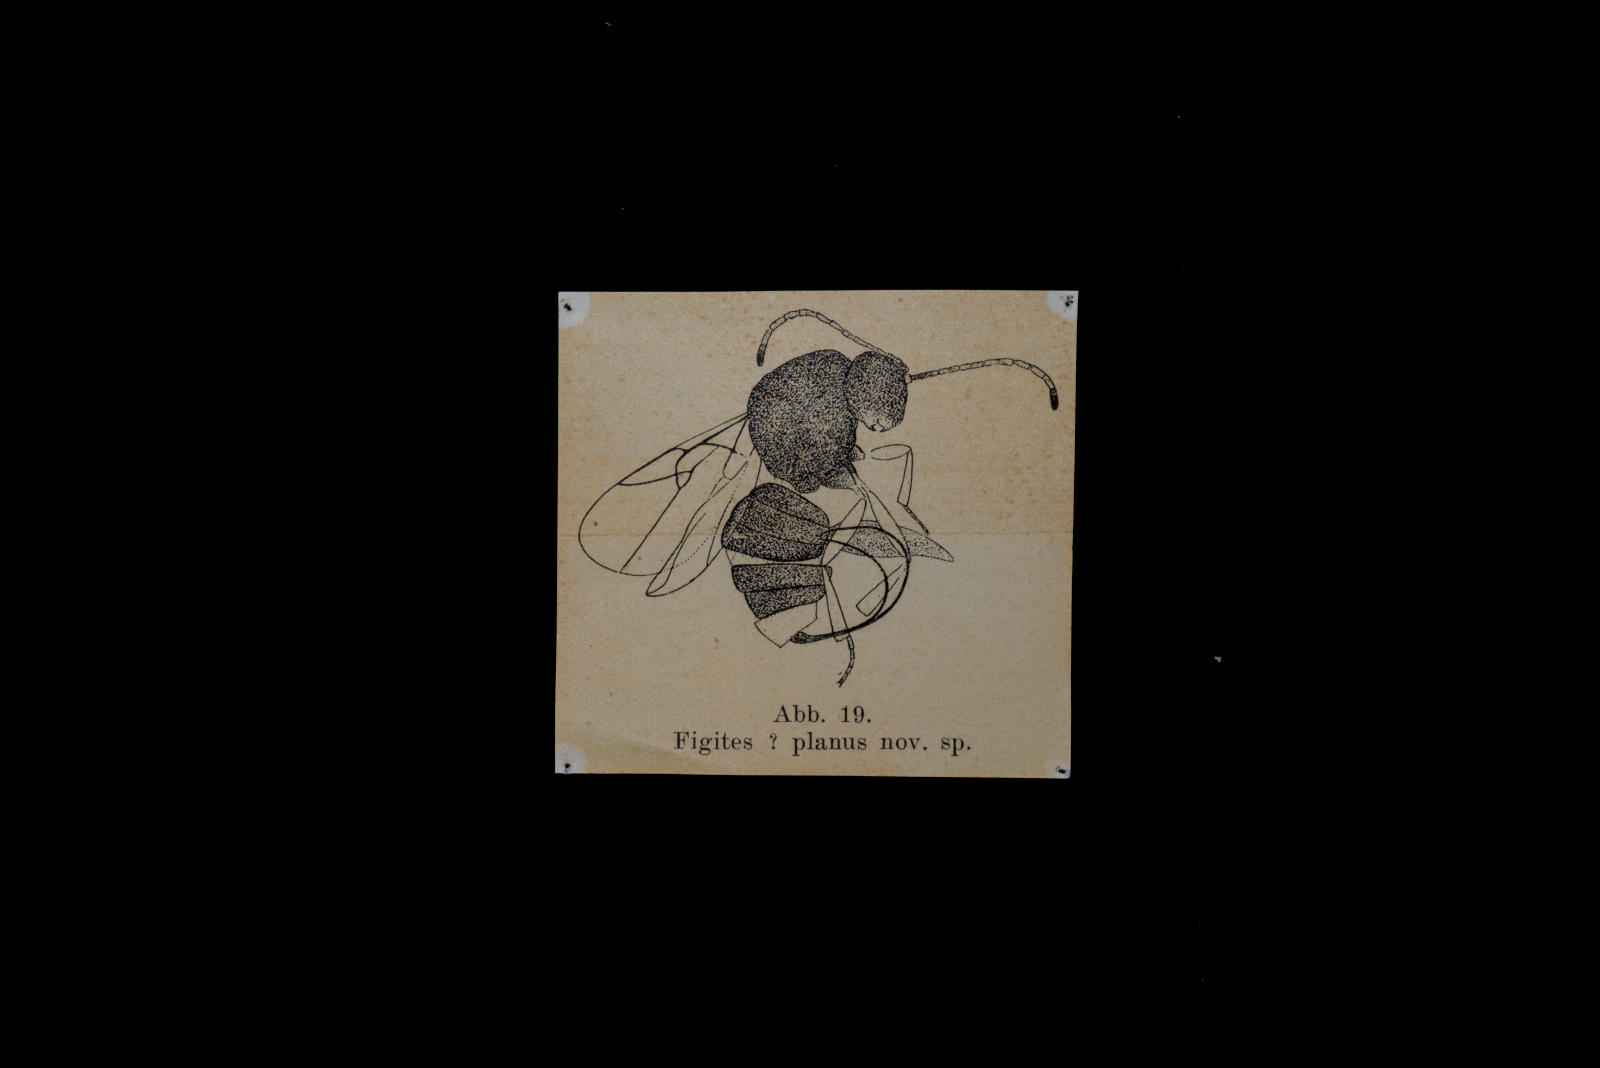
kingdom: Animalia
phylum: Arthropoda
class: Insecta
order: Hymenoptera
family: Cynipidae
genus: Aulacidea
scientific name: Aulacidea Figites planus
